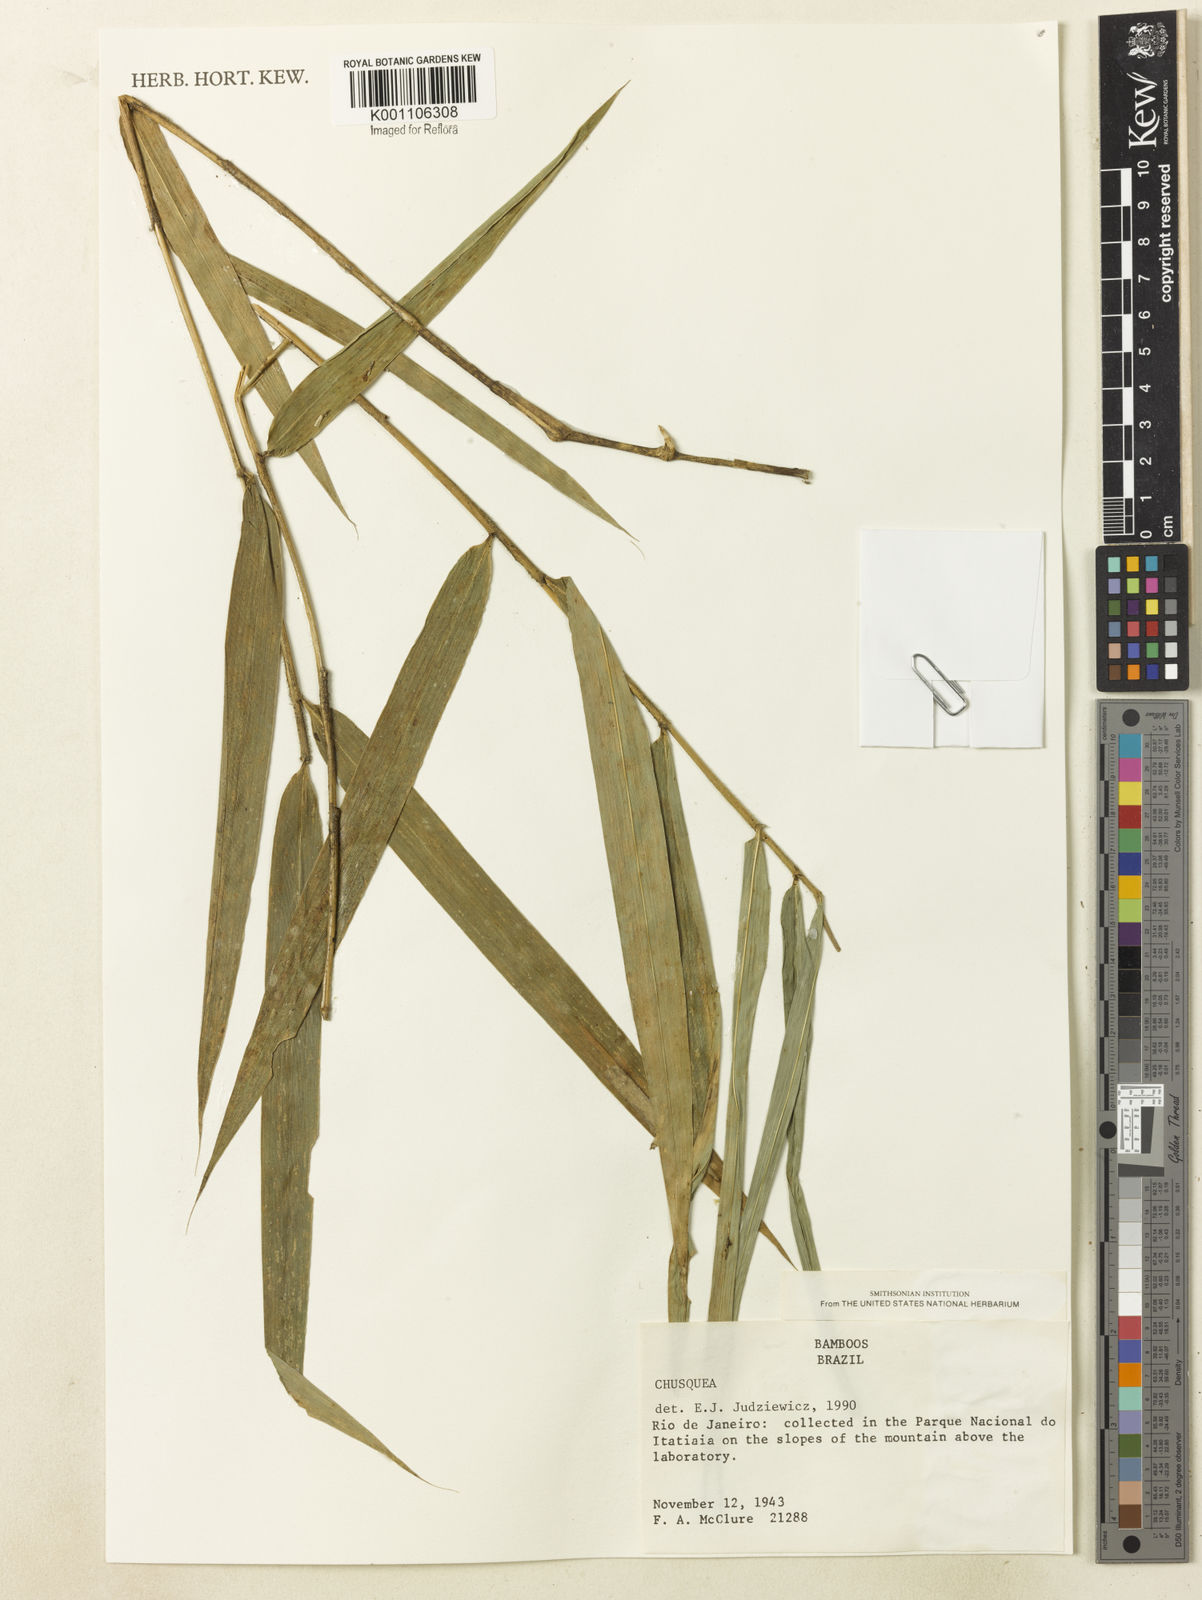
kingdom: Plantae
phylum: Tracheophyta
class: Liliopsida
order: Poales
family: Poaceae
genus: Chusquea
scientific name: Chusquea anelythra
